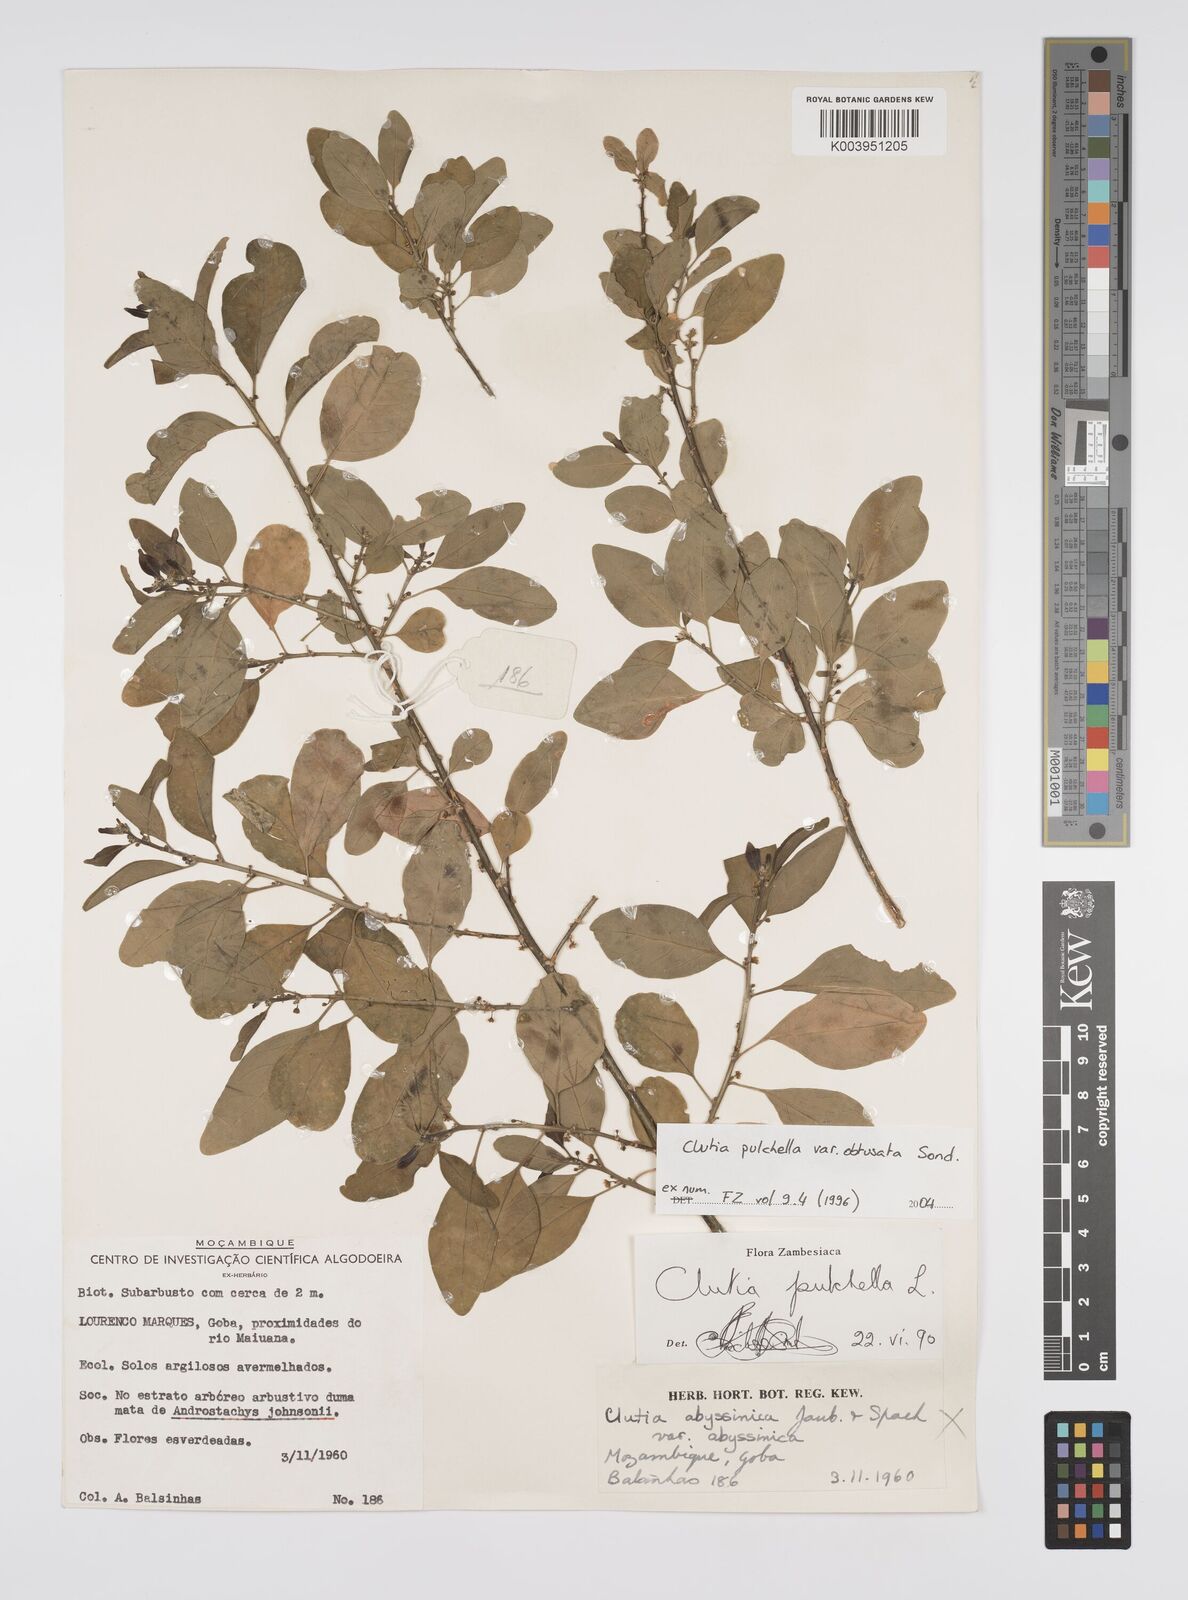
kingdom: Plantae
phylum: Tracheophyta
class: Magnoliopsida
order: Malpighiales
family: Peraceae
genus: Clutia
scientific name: Clutia pulchella
